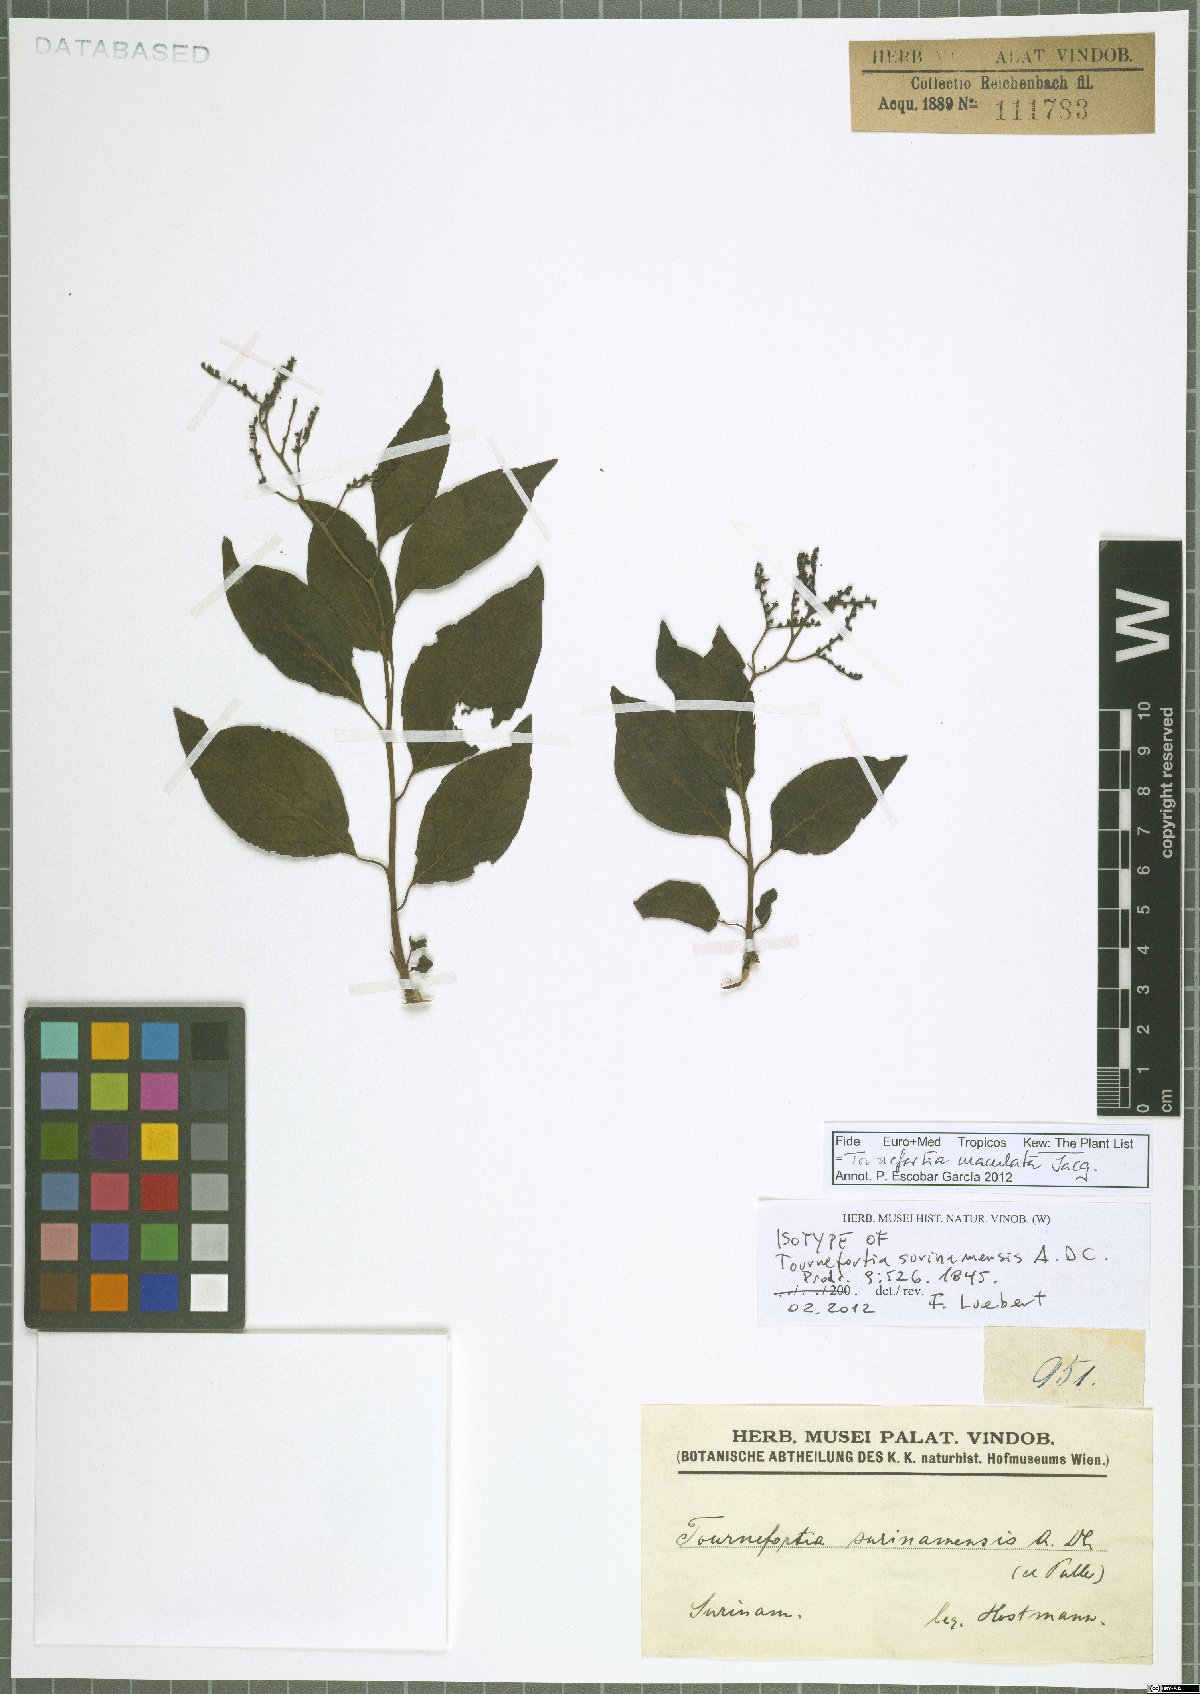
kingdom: Plantae
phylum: Tracheophyta
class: Magnoliopsida
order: Boraginales
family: Heliotropiaceae
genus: Myriopus
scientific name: Myriopus maculatus
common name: Laurel-leaf soldierbush
